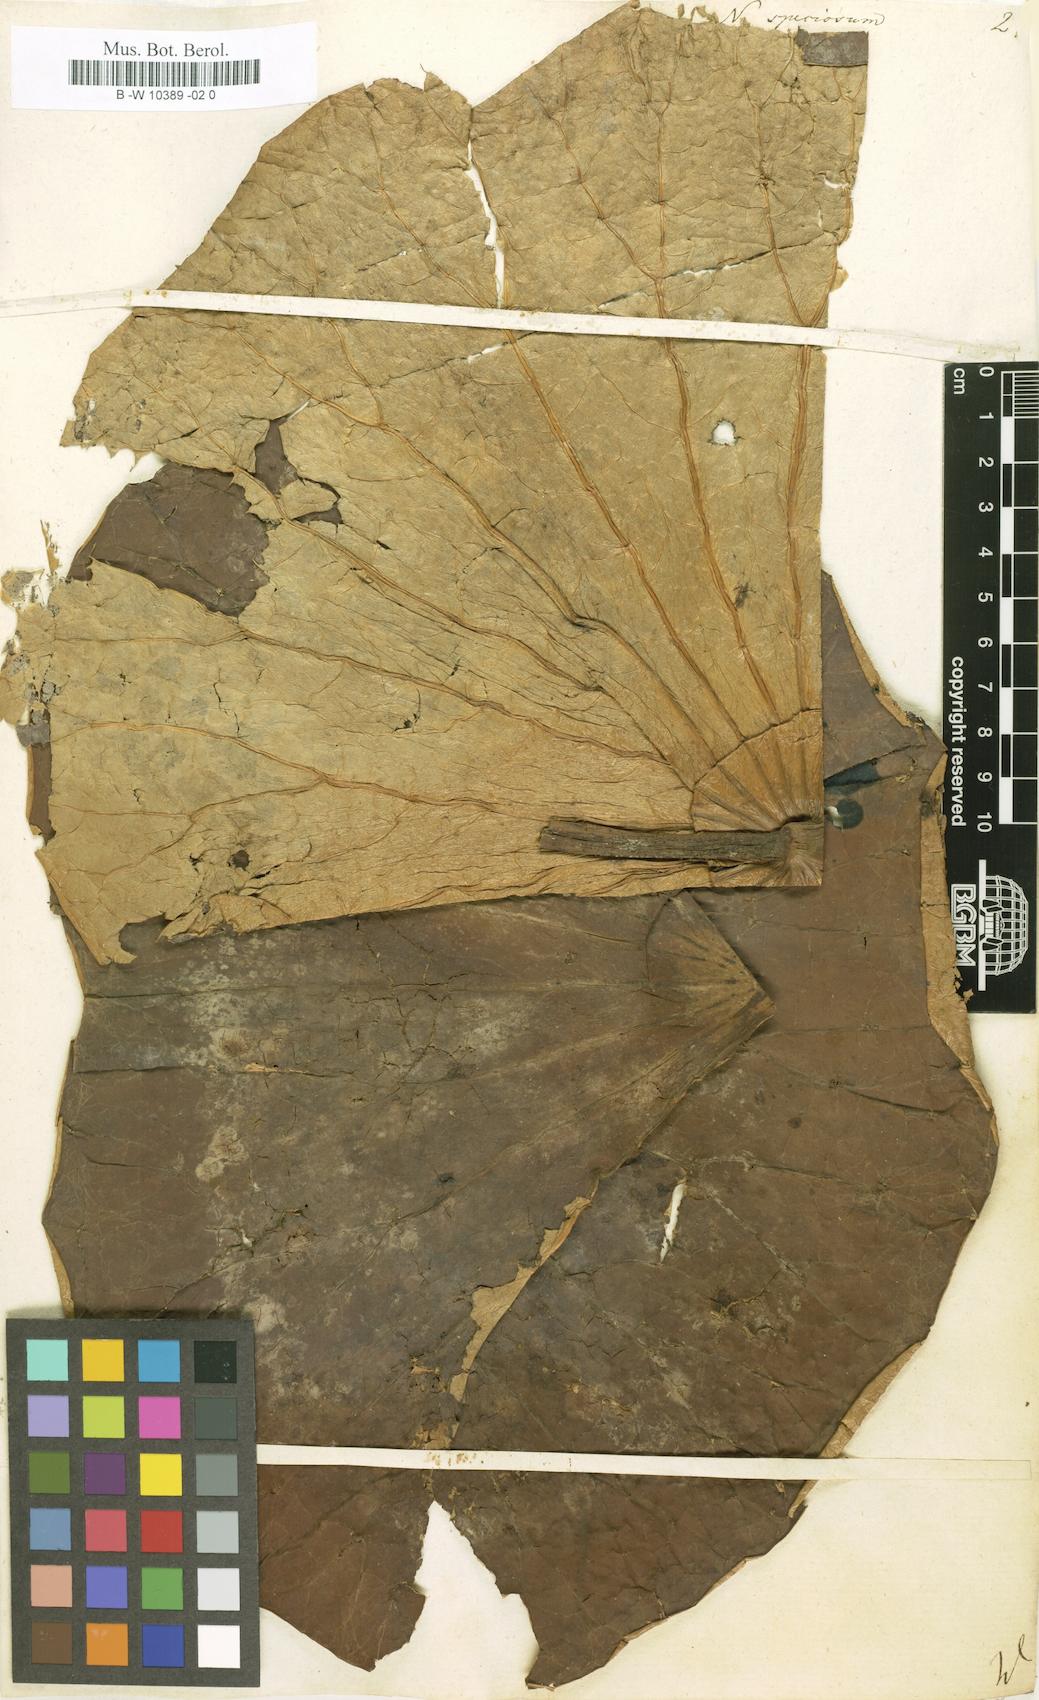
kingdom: Plantae
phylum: Tracheophyta
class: Magnoliopsida
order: Proteales
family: Nelumbonaceae
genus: Nelumbo
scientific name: Nelumbo nucifera
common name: Sacred lotus
